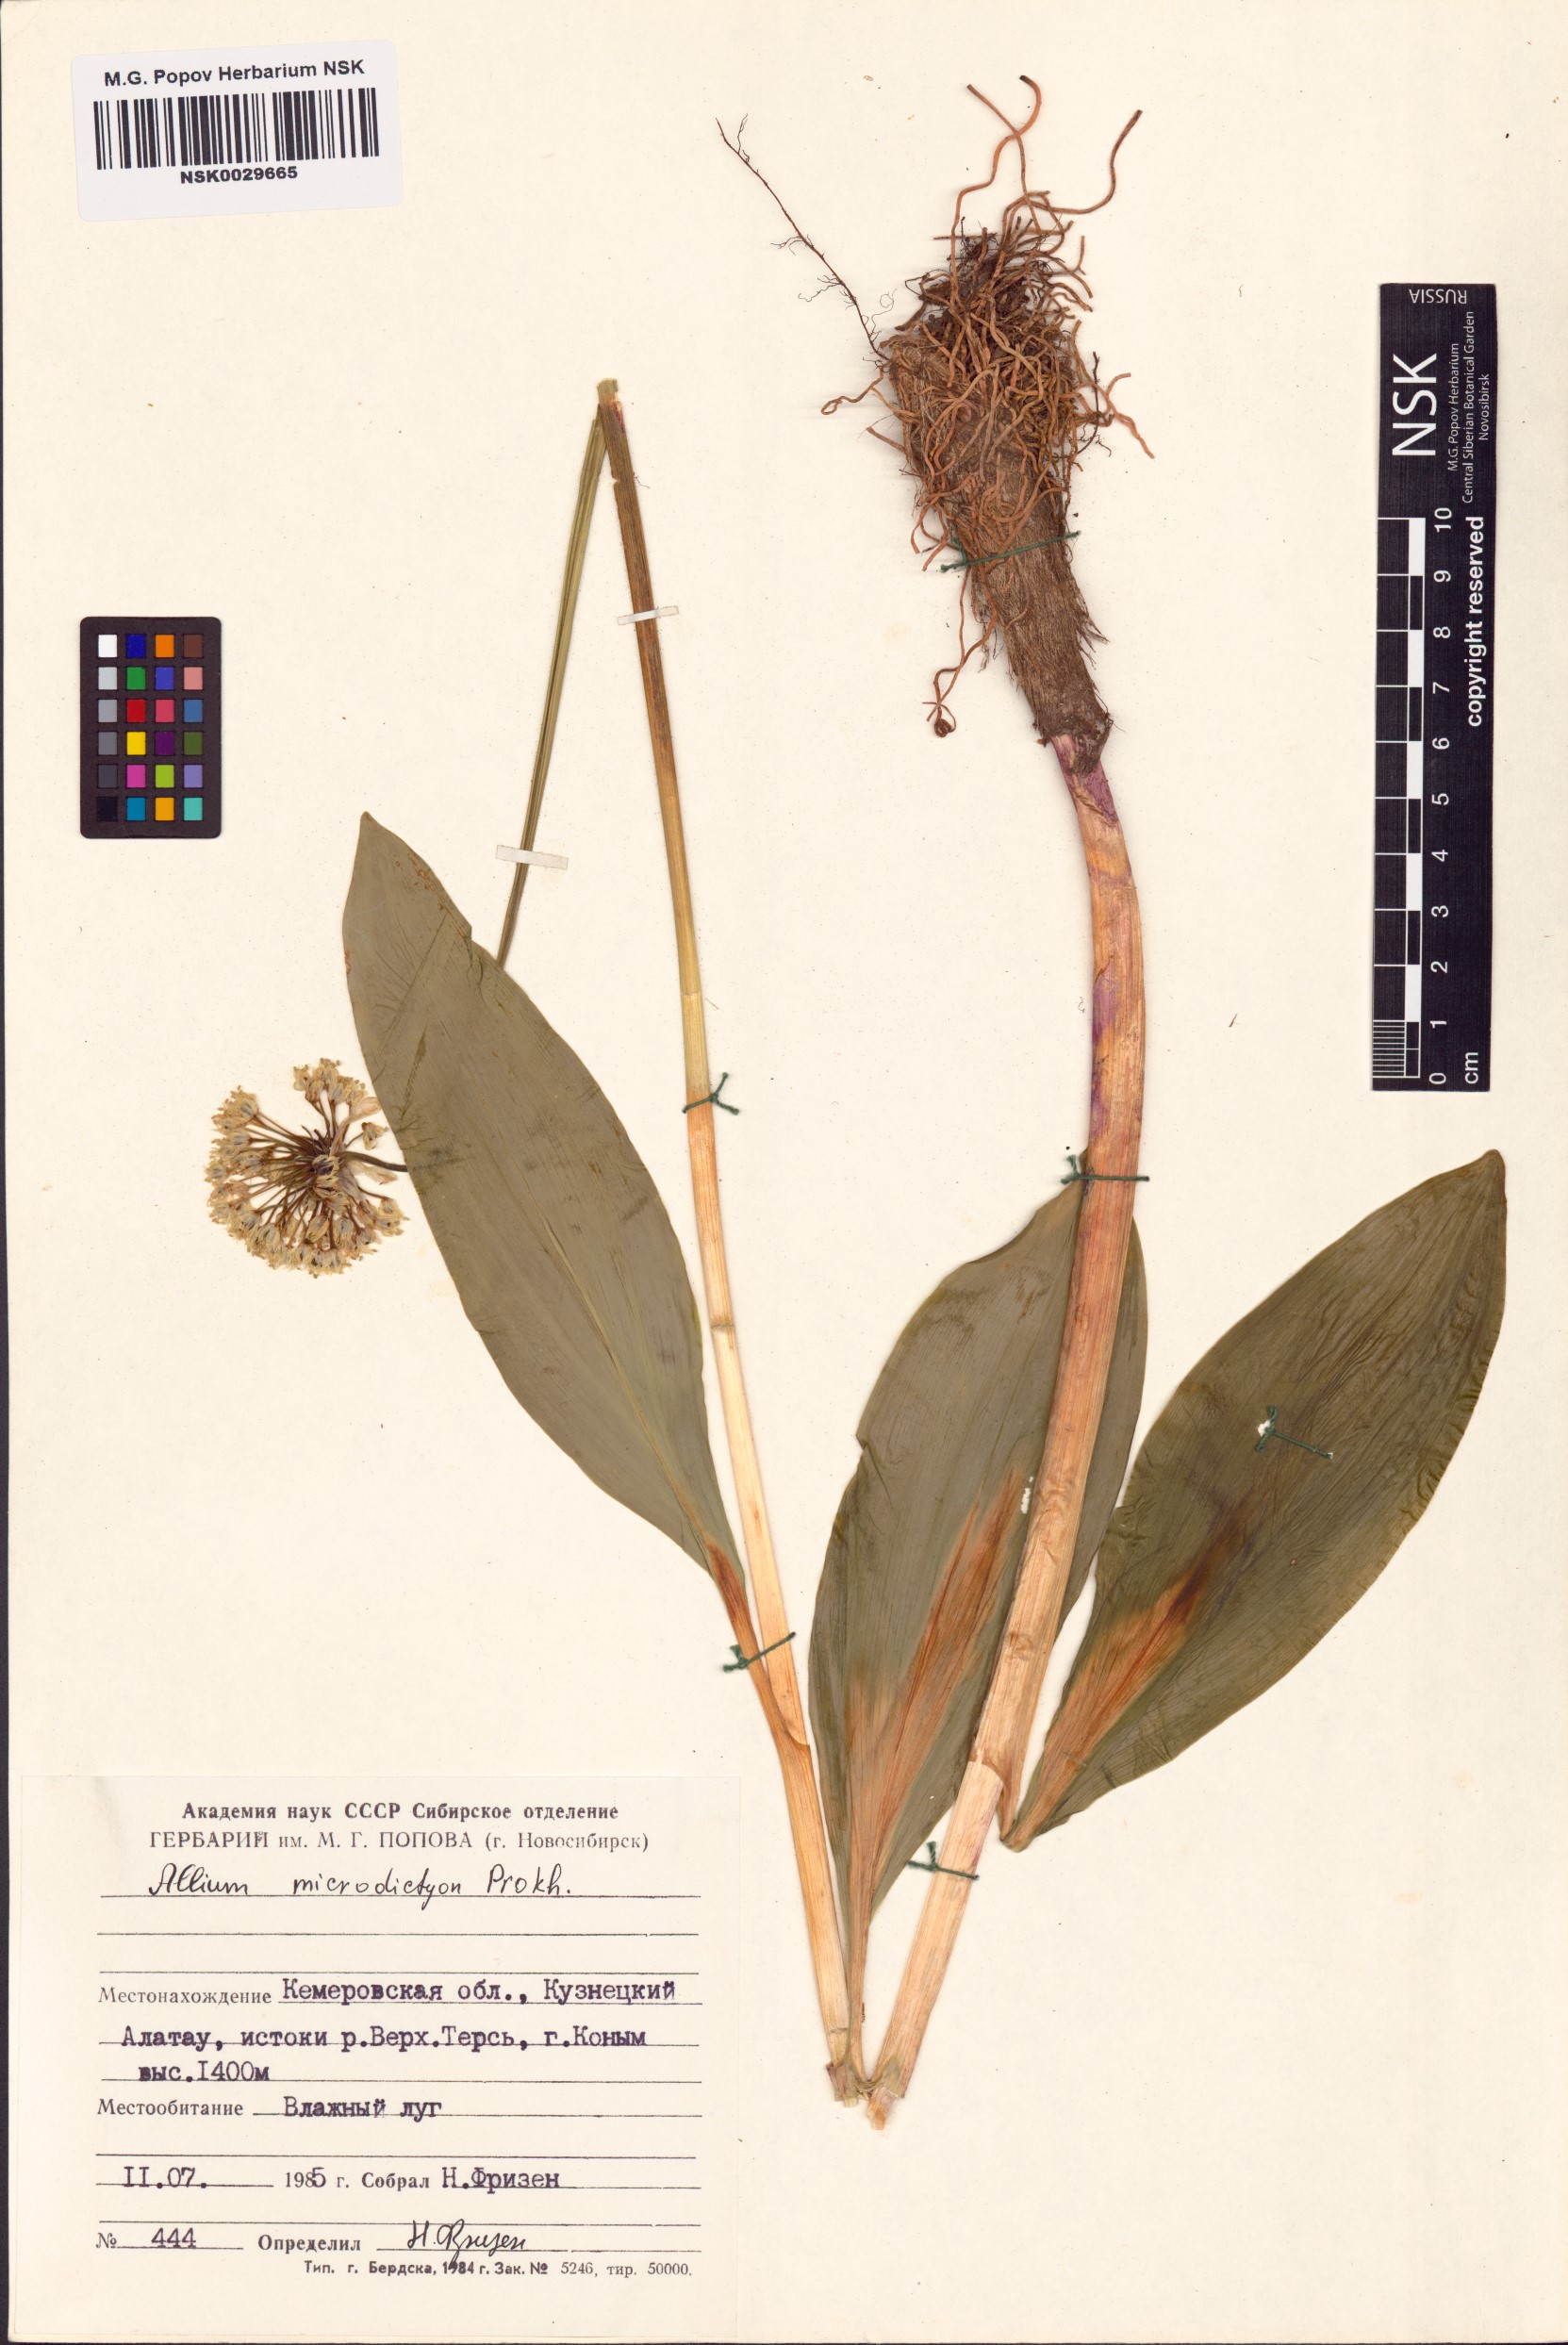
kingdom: Plantae
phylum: Tracheophyta
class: Liliopsida
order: Asparagales
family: Amaryllidaceae
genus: Allium
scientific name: Allium microdictyon
